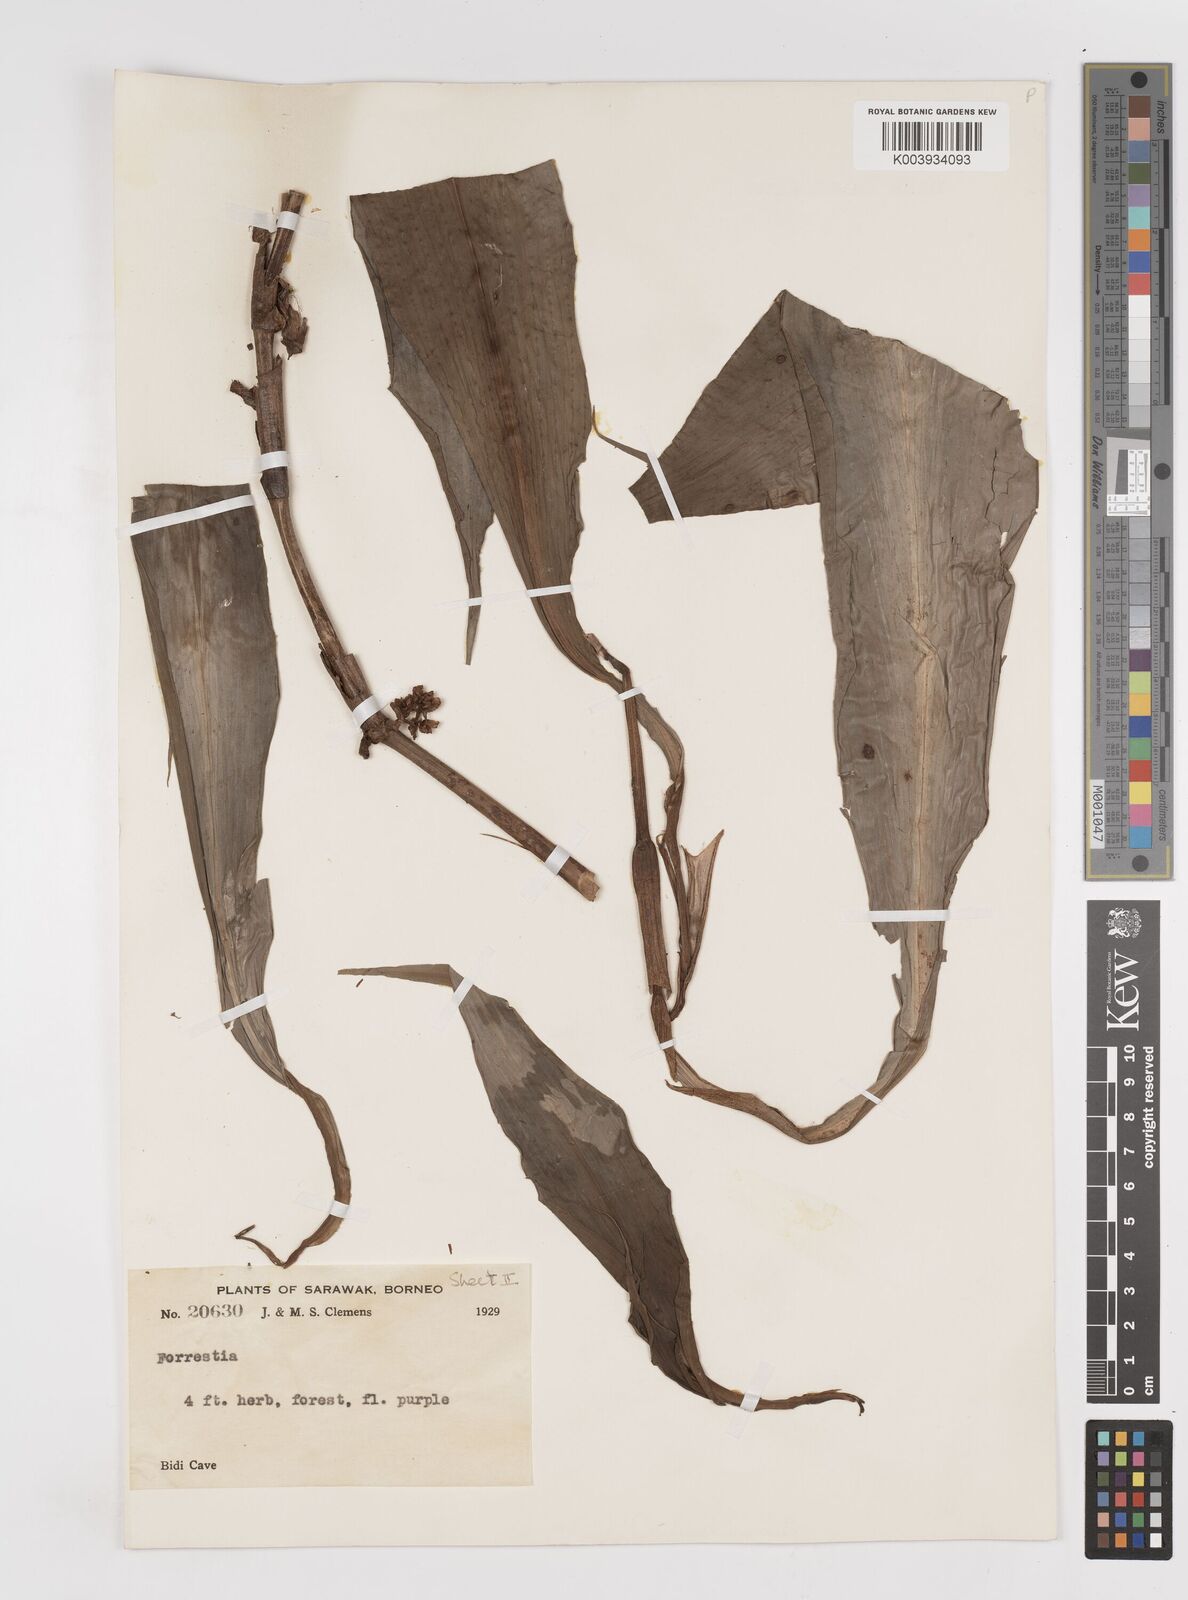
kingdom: Plantae
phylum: Tracheophyta
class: Liliopsida
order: Commelinales
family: Commelinaceae
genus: Amischotolype
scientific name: Amischotolype
